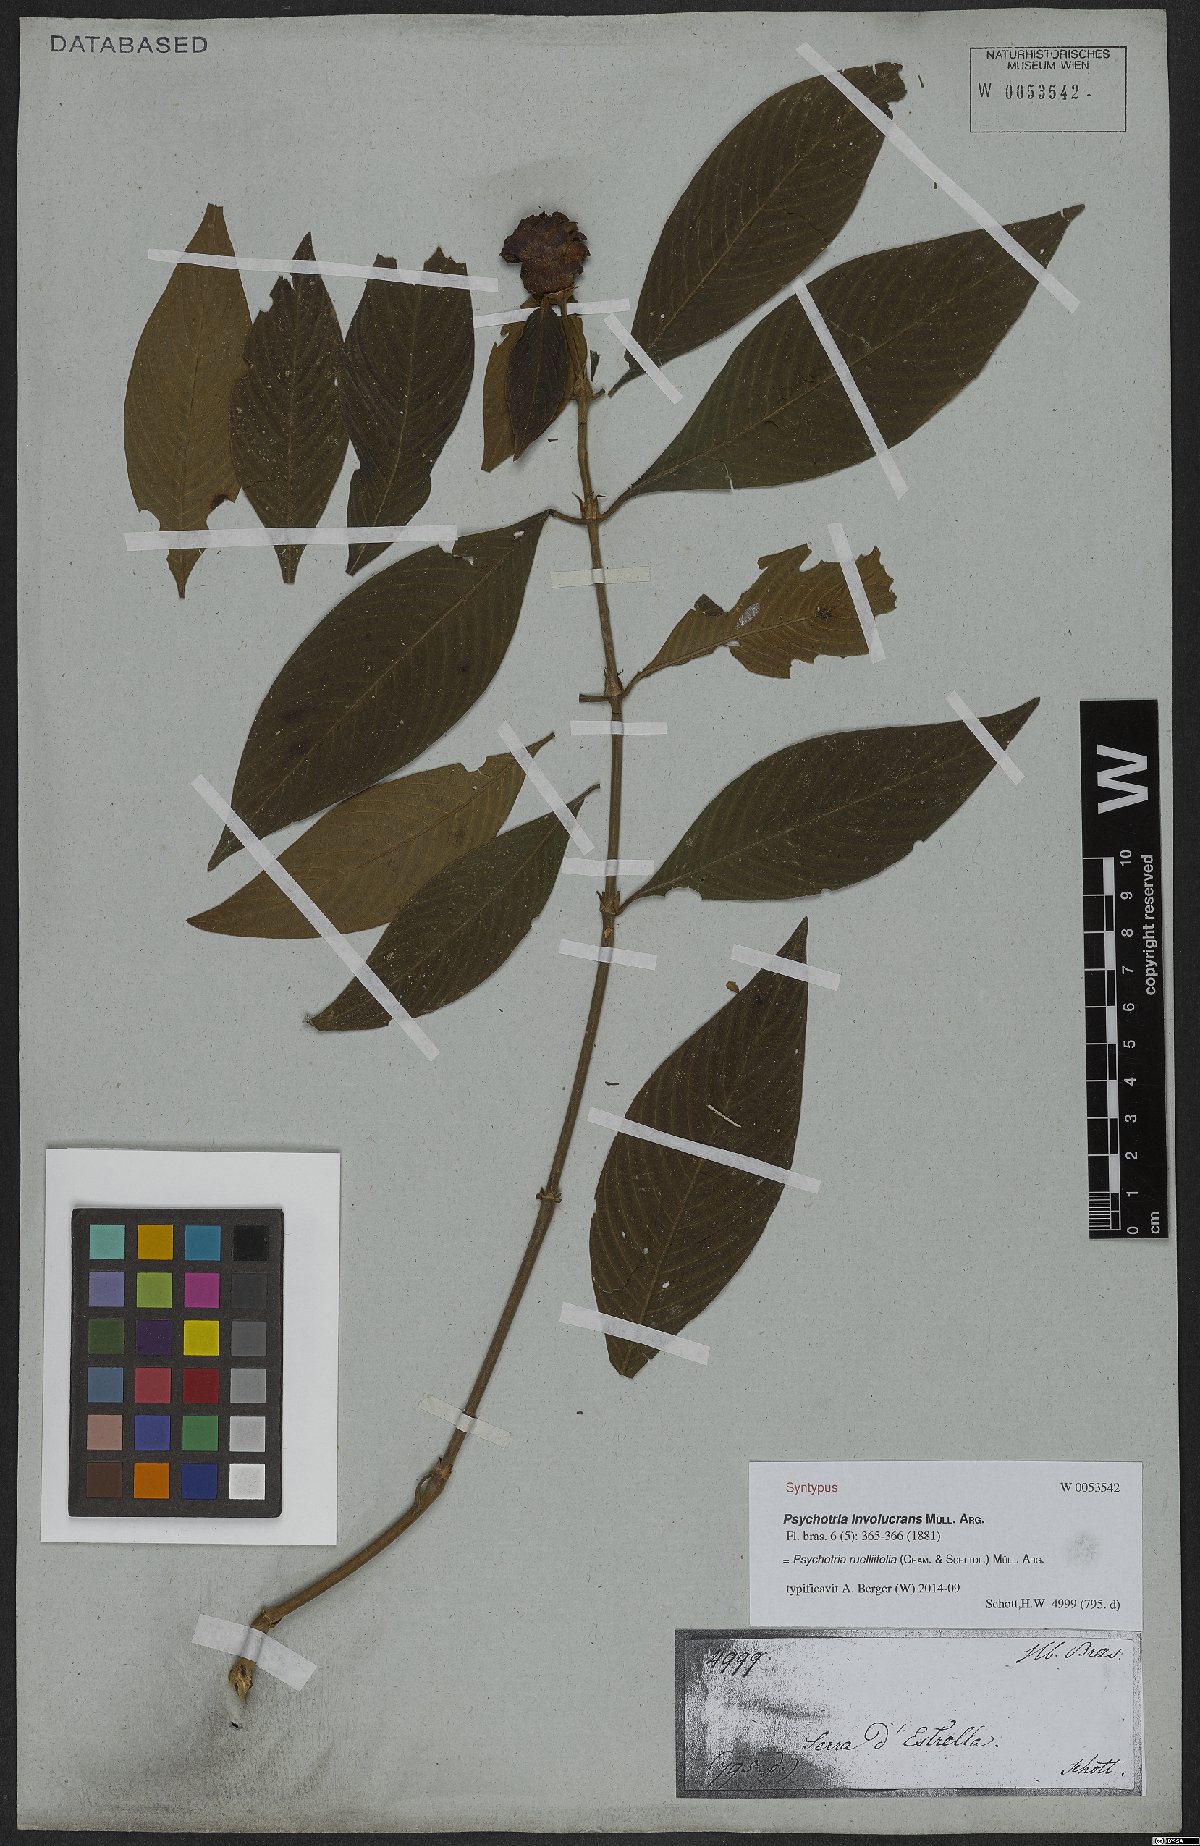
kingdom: Plantae
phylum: Tracheophyta
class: Magnoliopsida
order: Gentianales
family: Rubiaceae
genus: Palicourea
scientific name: Palicourea ruelliifolia
